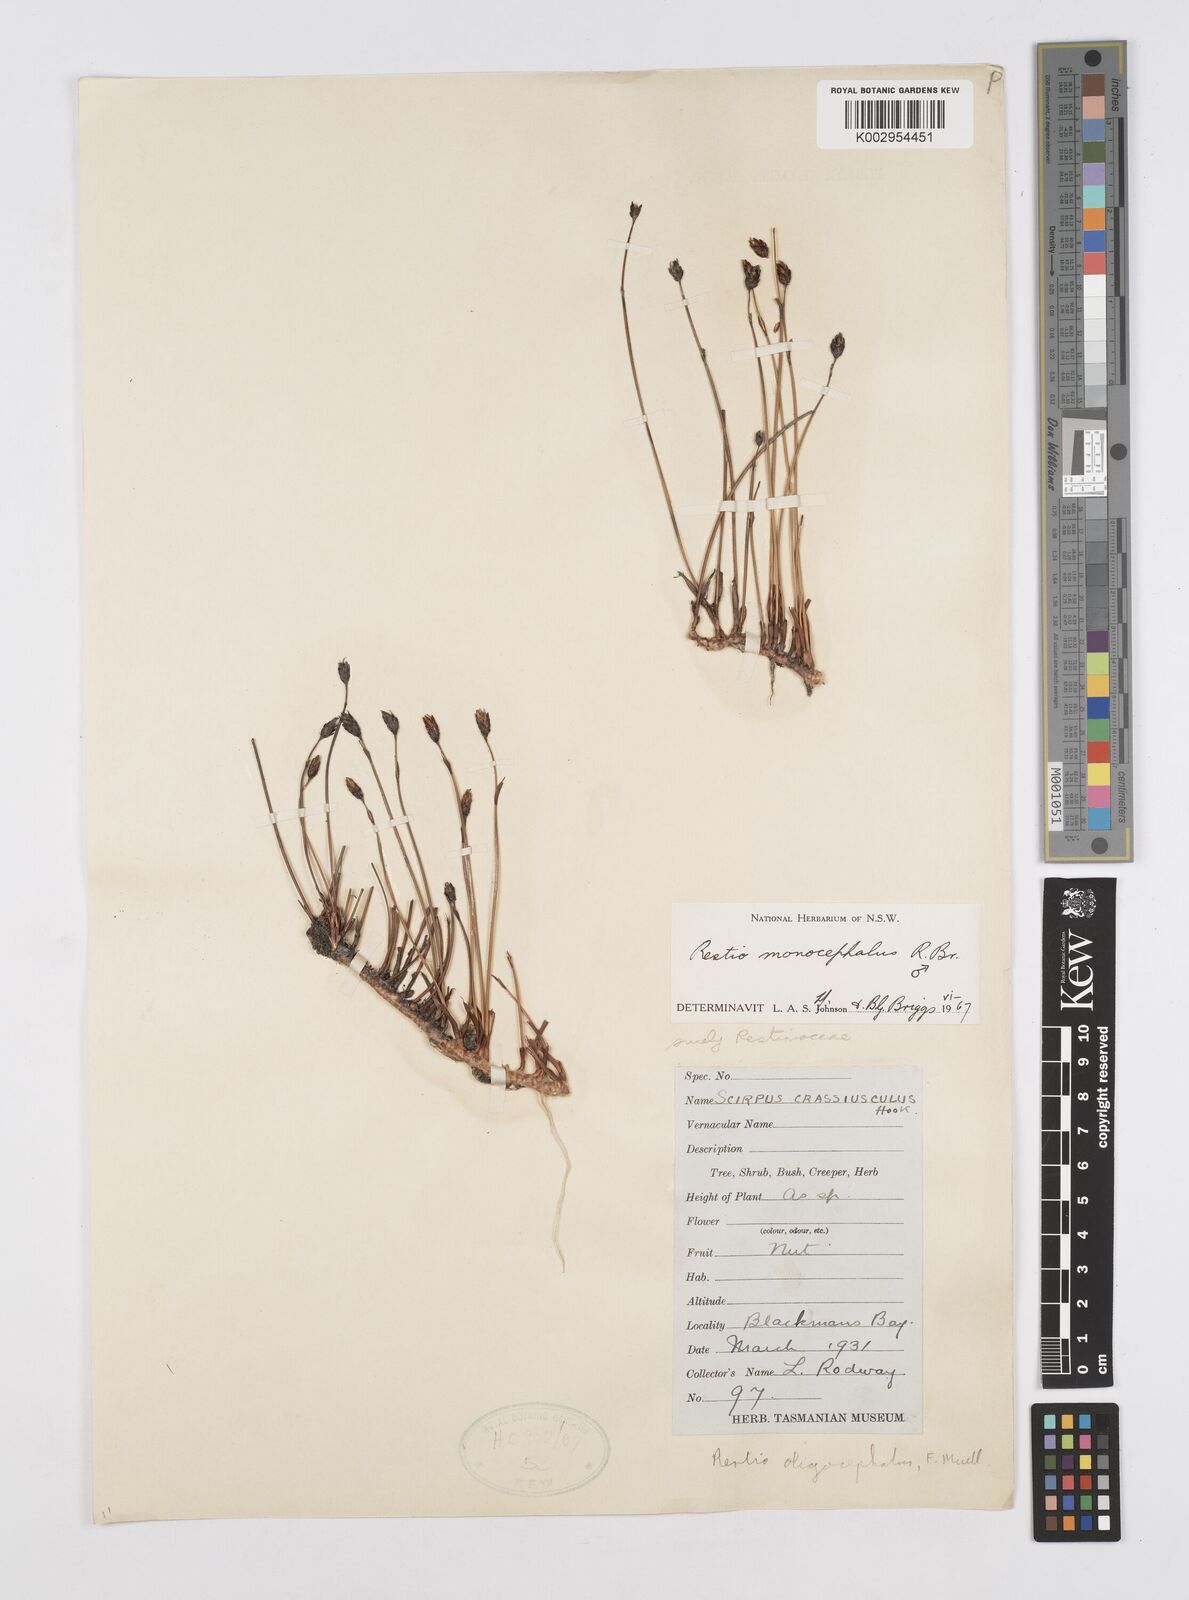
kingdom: Plantae
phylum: Tracheophyta
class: Liliopsida
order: Poales
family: Restionaceae
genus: Chordifex
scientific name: Chordifex monocephalus
